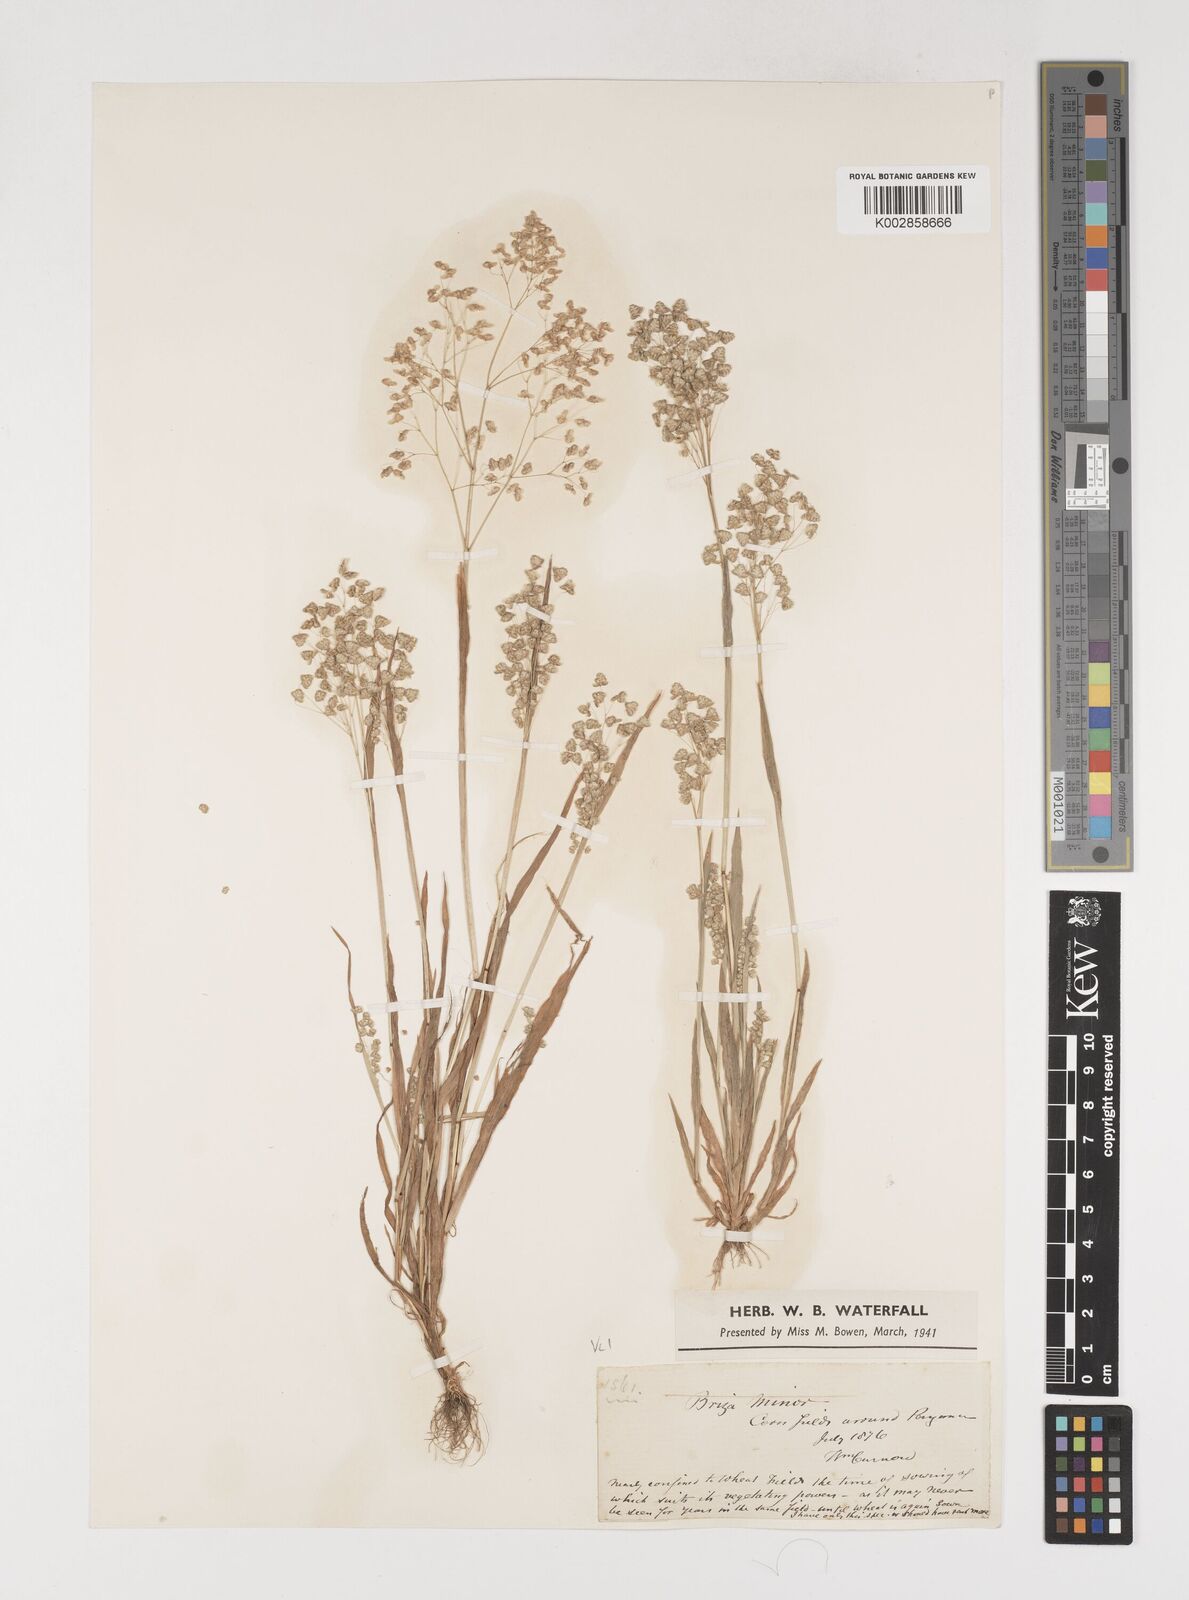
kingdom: Plantae
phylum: Tracheophyta
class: Liliopsida
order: Poales
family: Poaceae
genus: Briza
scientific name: Briza minor
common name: Lesser quaking-grass
